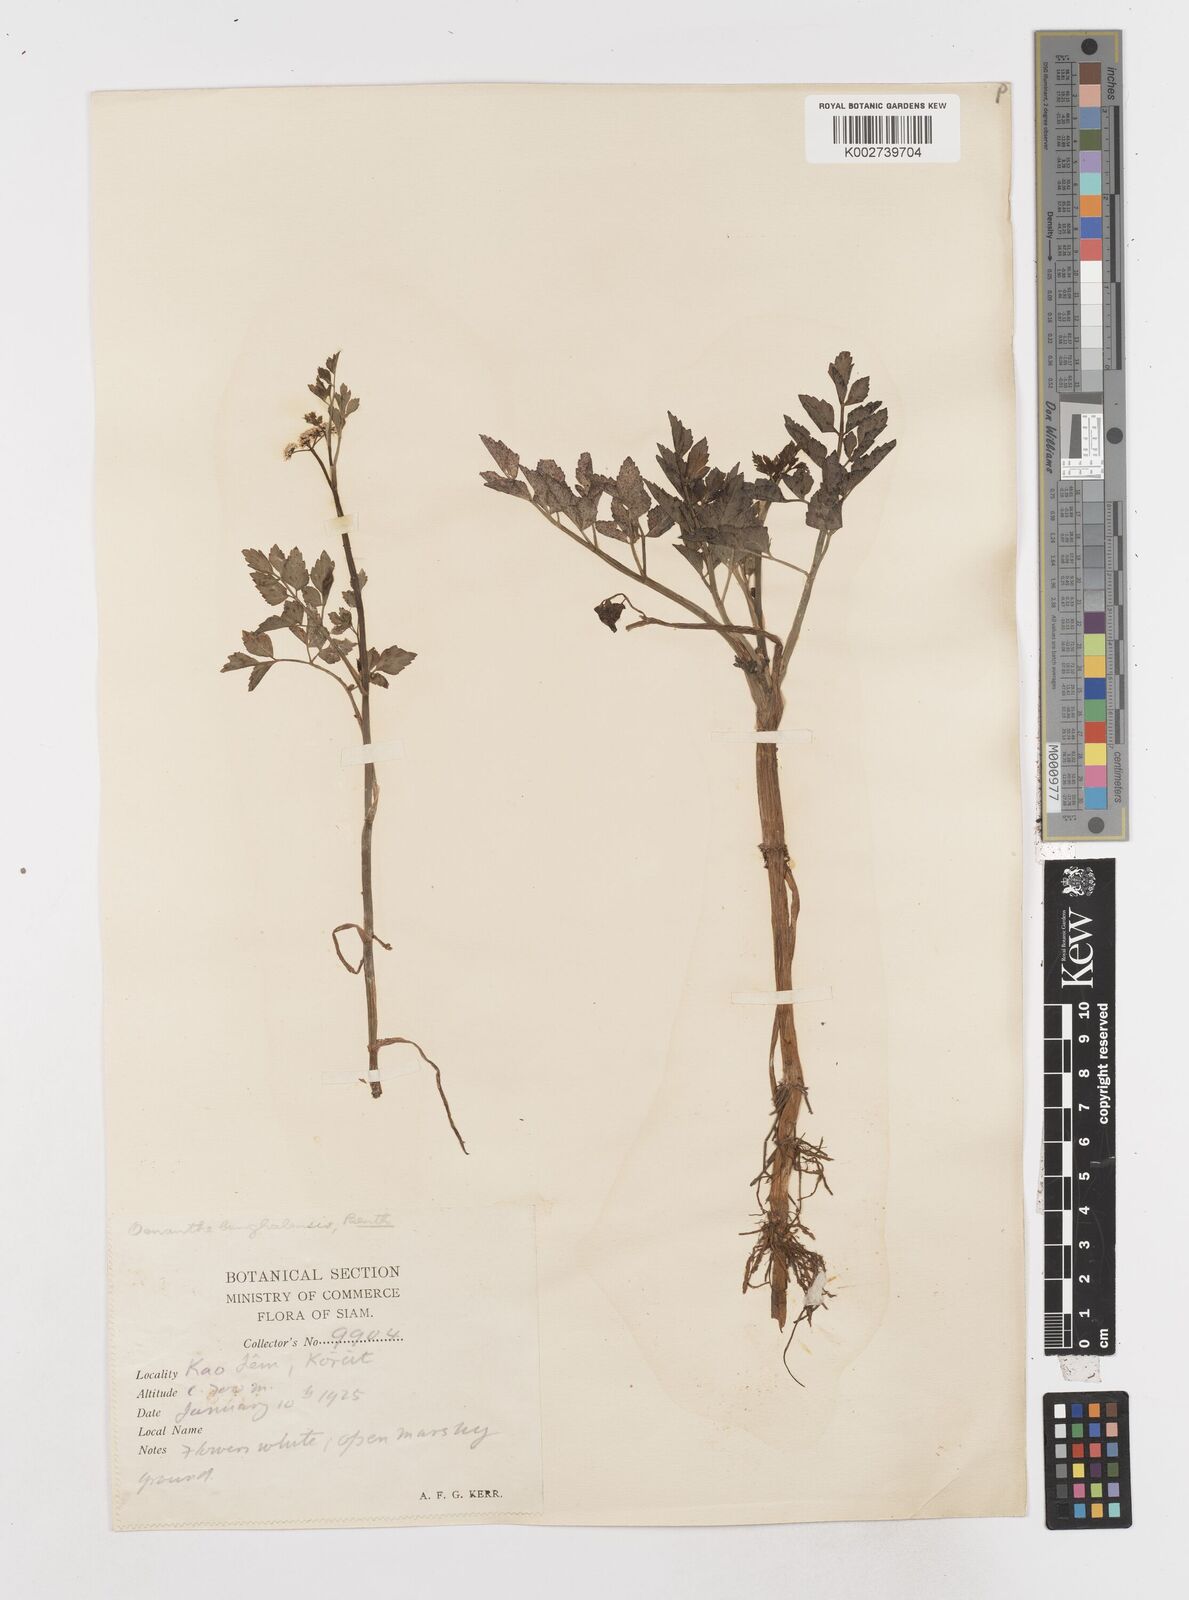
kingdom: Plantae
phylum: Tracheophyta
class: Magnoliopsida
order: Apiales
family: Apiaceae
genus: Oenanthe
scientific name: Oenanthe javanica
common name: Java water-dropwort
